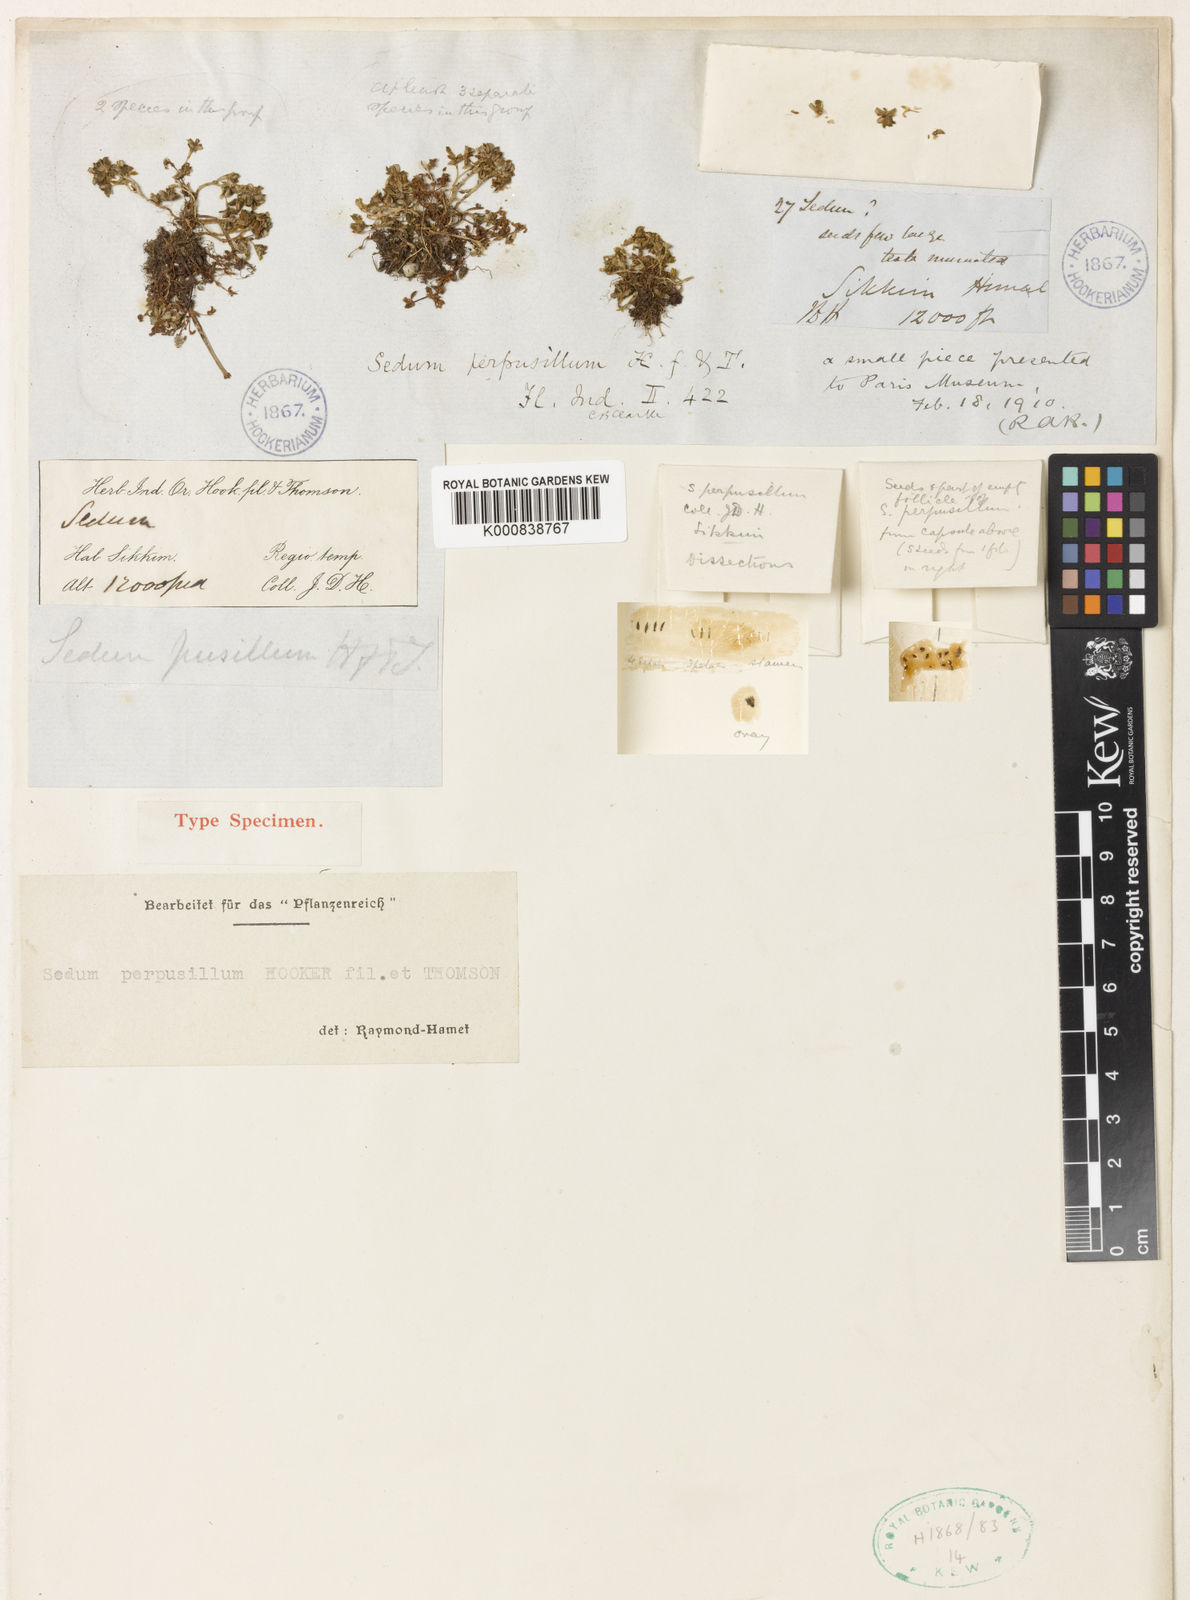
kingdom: Plantae
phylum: Tracheophyta
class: Magnoliopsida
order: Saxifragales
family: Crassulaceae
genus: Sedum
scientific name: Sedum perpusillum
